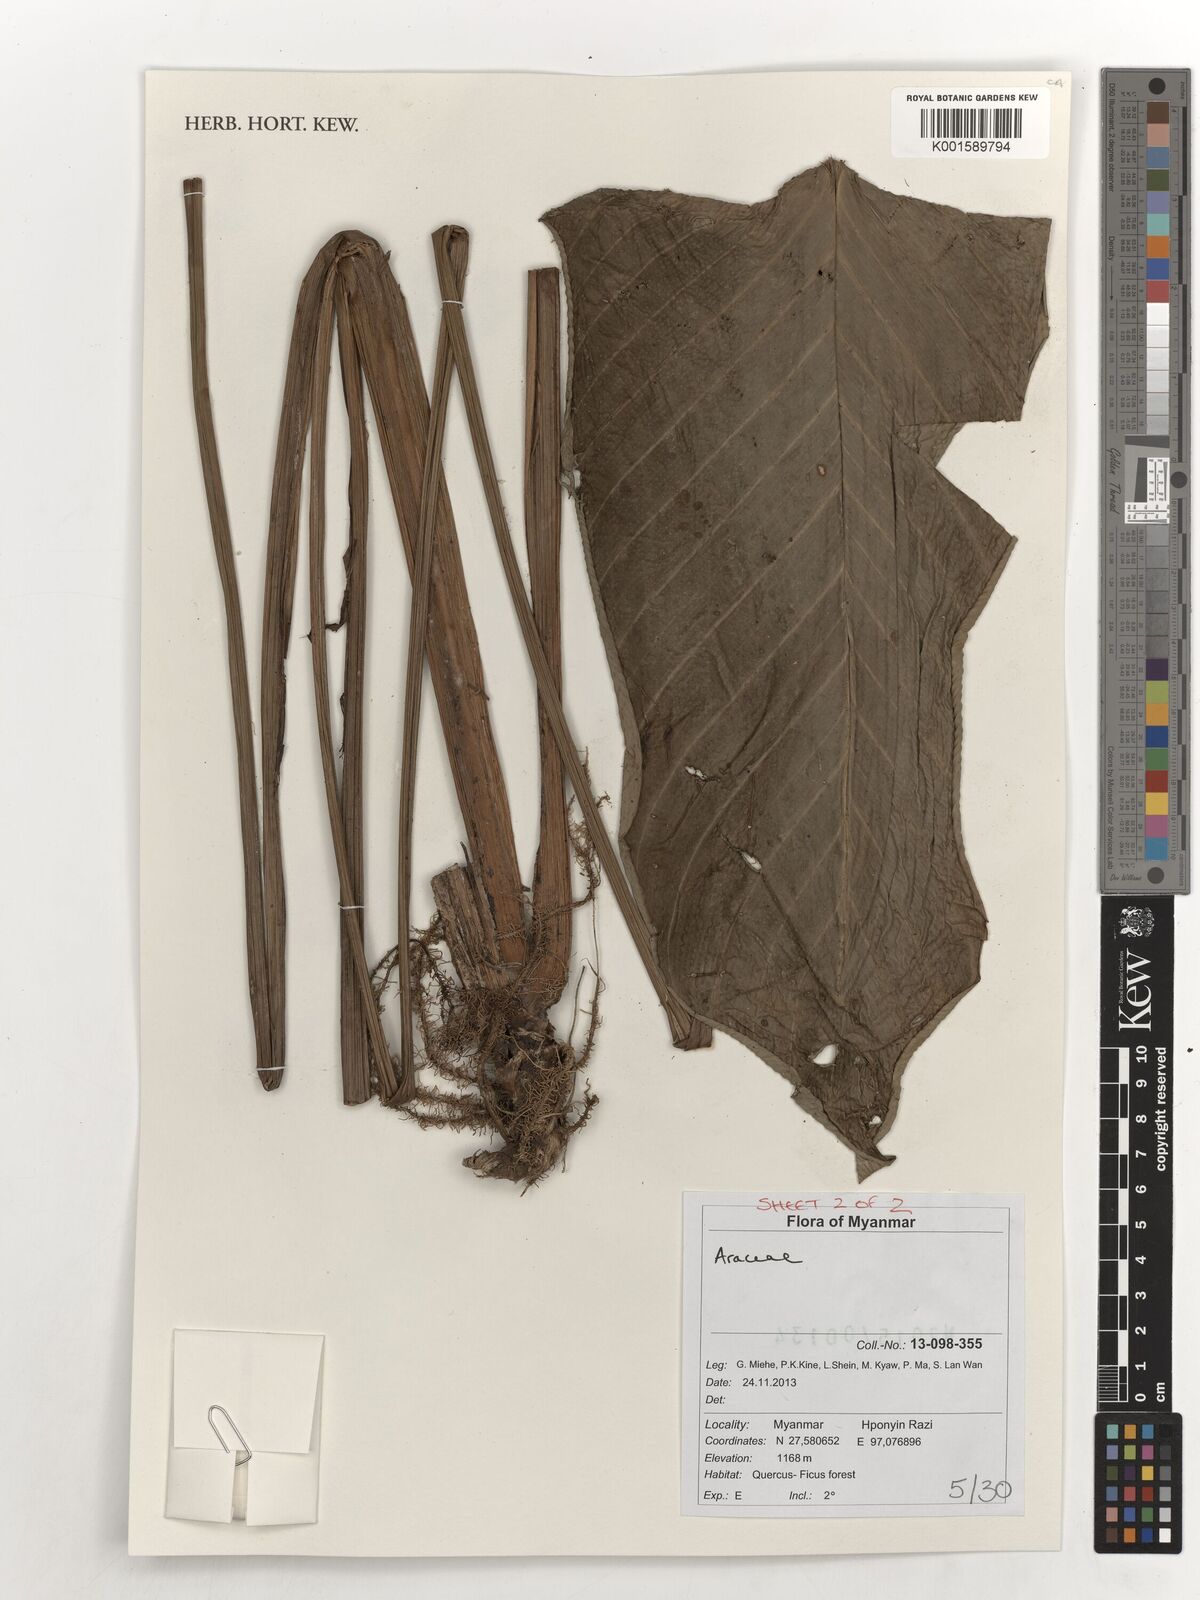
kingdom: Plantae
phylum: Tracheophyta
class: Liliopsida
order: Alismatales
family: Araceae
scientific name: Araceae
